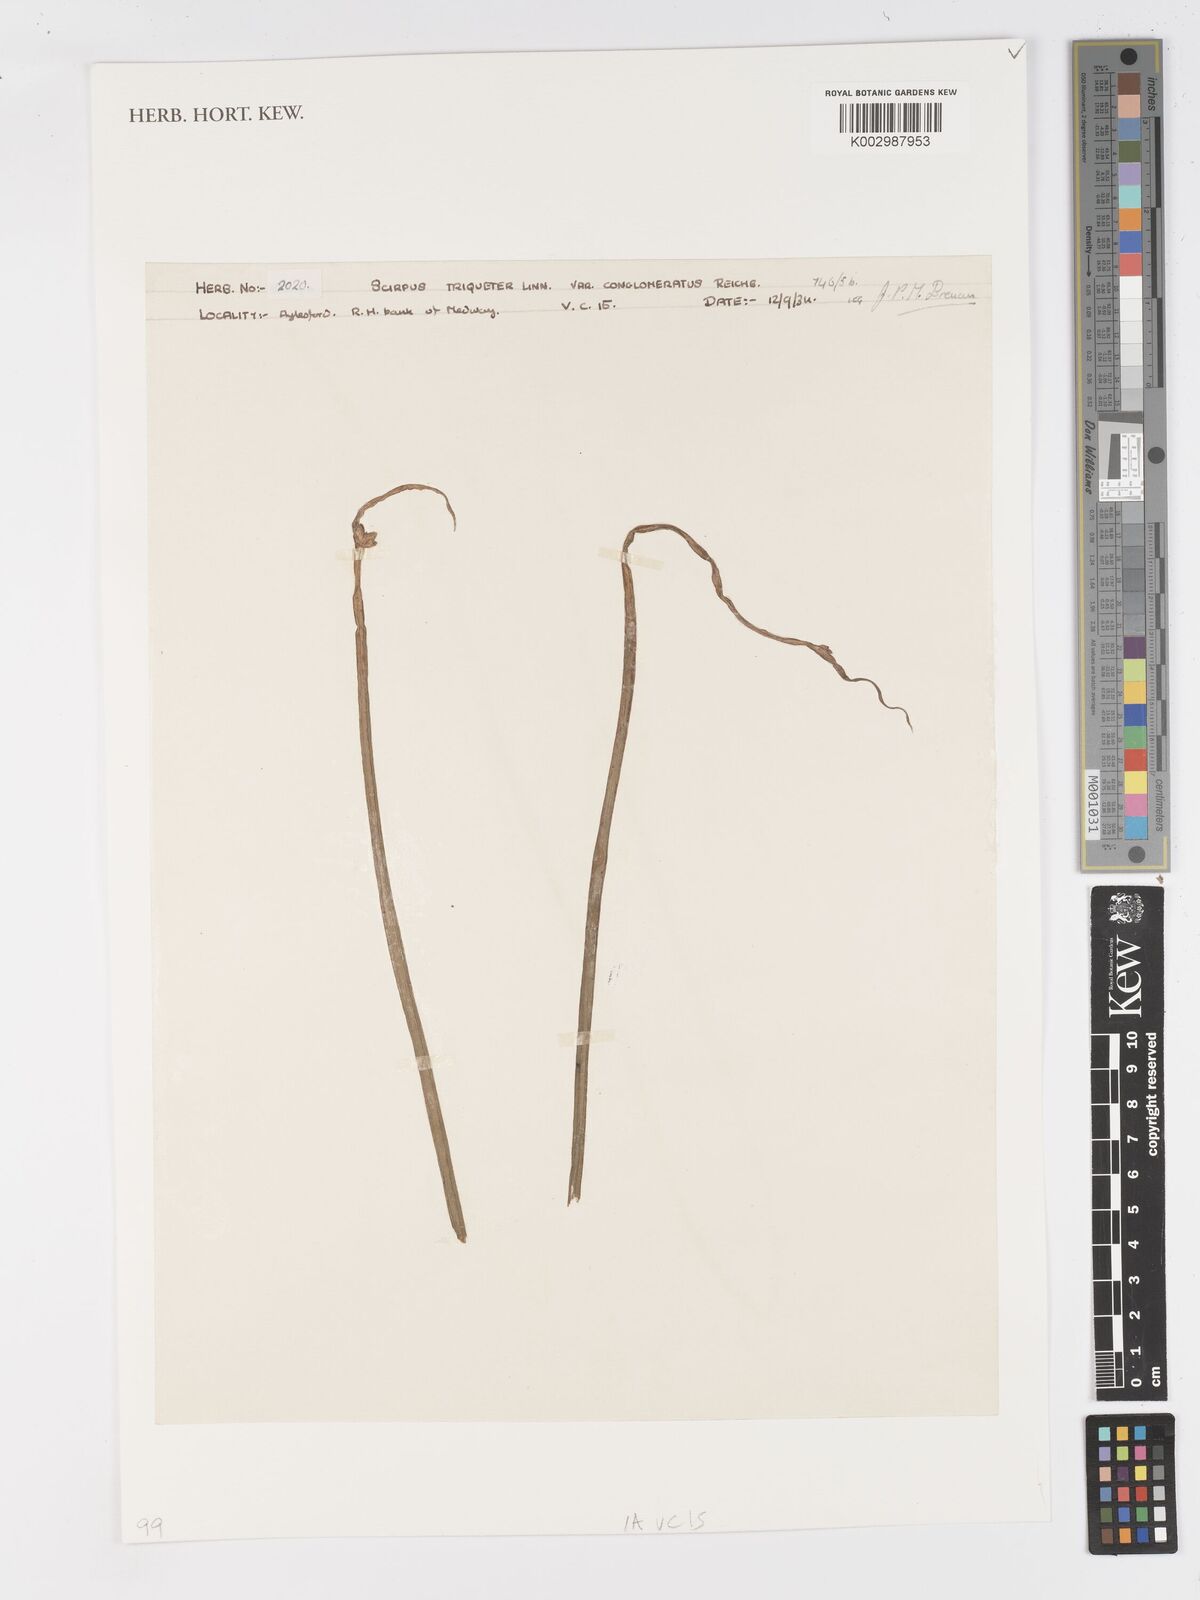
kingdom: Plantae
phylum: Tracheophyta
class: Liliopsida
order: Poales
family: Cyperaceae
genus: Schoenoplectus
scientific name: Schoenoplectus triqueter
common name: Triangular club-rush
